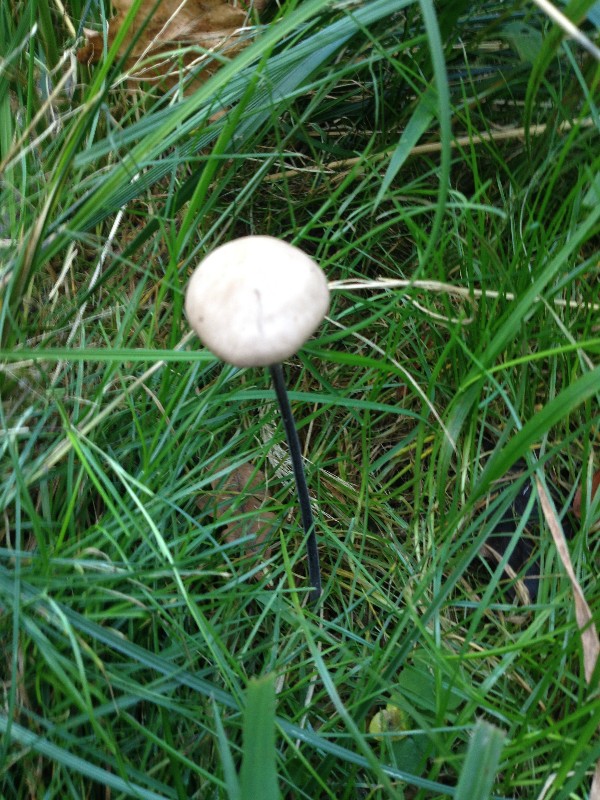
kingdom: Fungi
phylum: Basidiomycota
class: Agaricomycetes
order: Agaricales
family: Omphalotaceae
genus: Mycetinis
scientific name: Mycetinis alliaceus
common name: stor løghat
